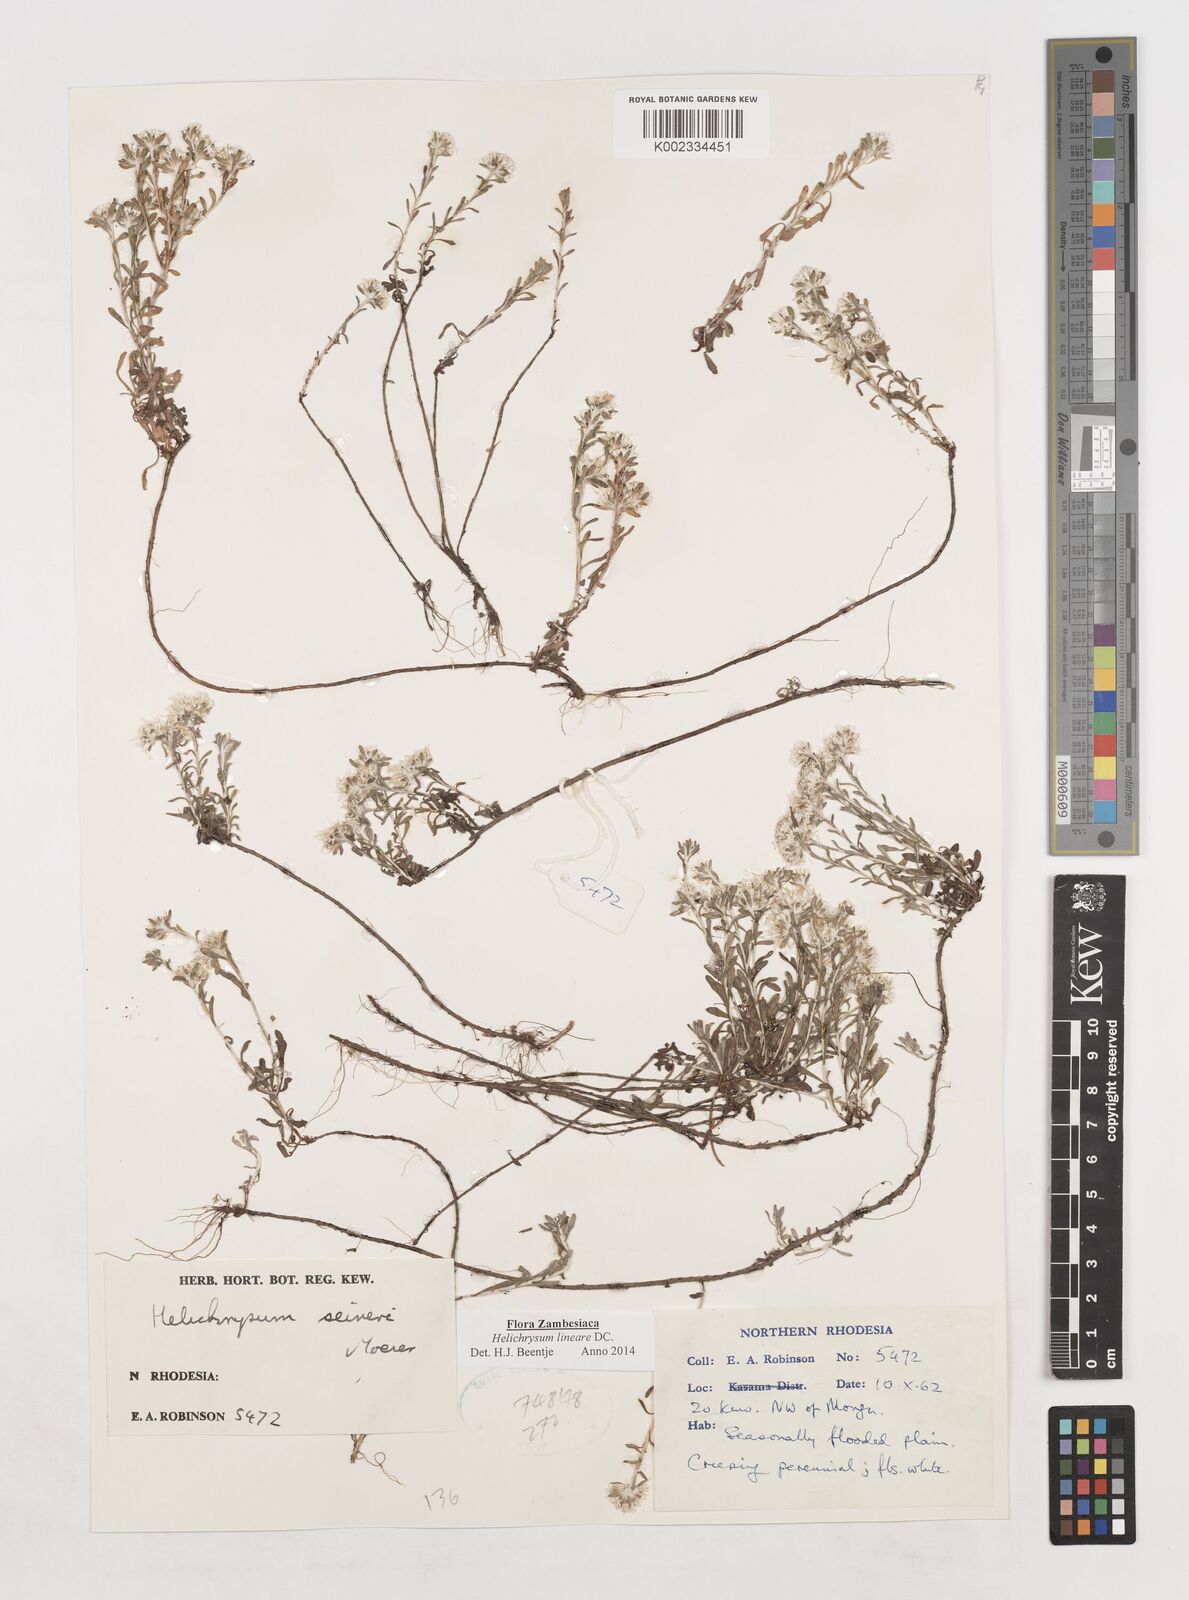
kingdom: Plantae
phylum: Tracheophyta
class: Magnoliopsida
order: Asterales
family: Asteraceae
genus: Helichrysum
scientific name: Helichrysum lineare
